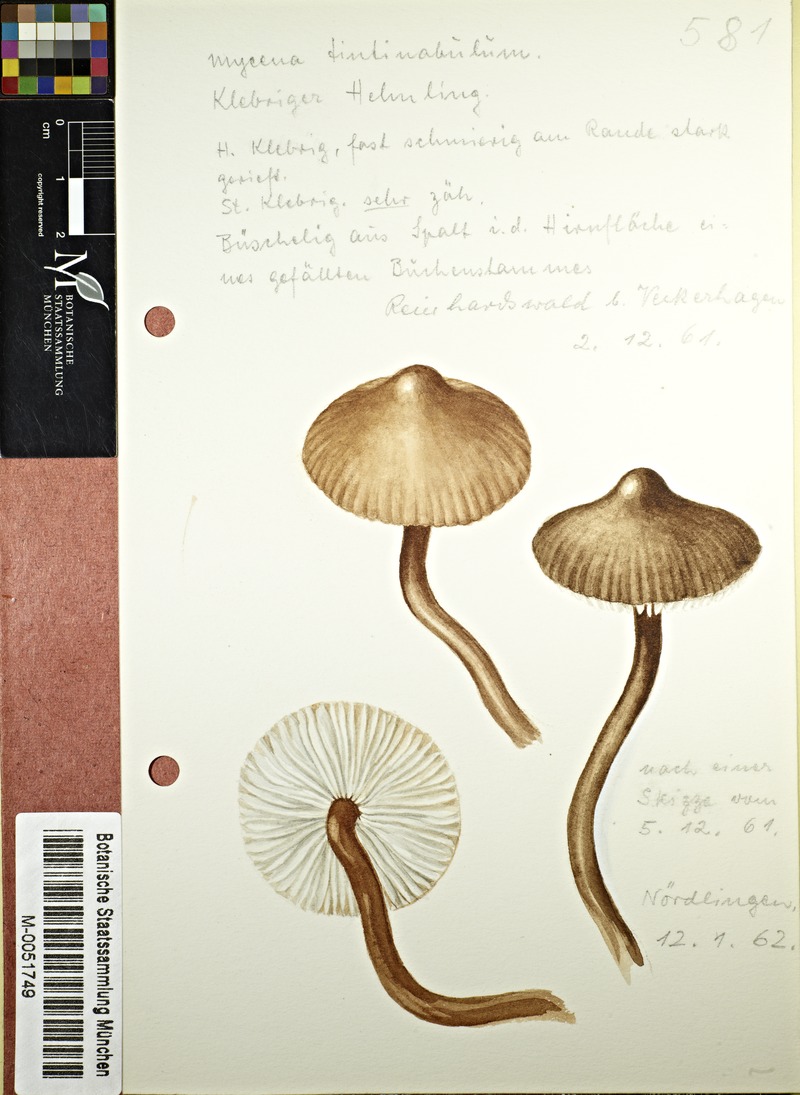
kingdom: Fungi
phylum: Basidiomycota
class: Agaricomycetes
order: Agaricales
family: Mycenaceae
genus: Mycena
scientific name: Mycena tintinnabulum
